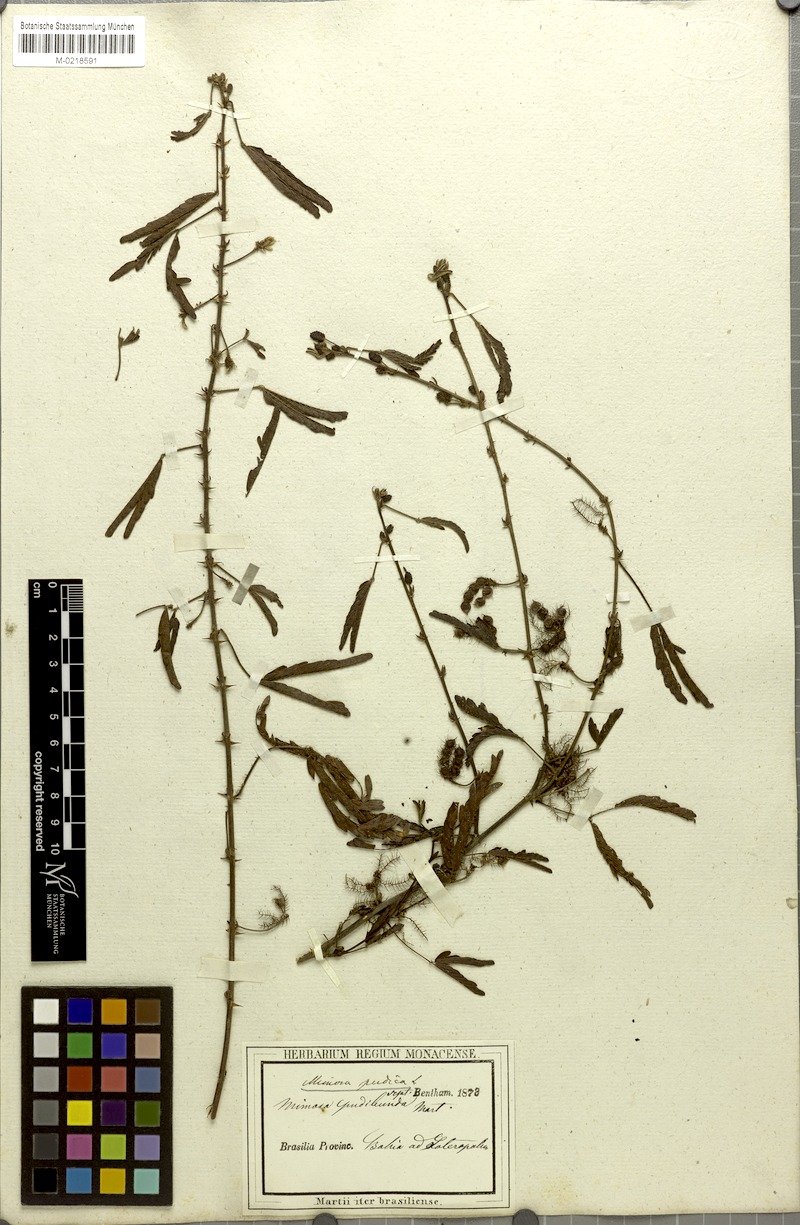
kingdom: Plantae
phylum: Tracheophyta
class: Magnoliopsida
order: Fabales
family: Fabaceae
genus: Mimosa
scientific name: Mimosa pudica
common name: Sensitive plant
